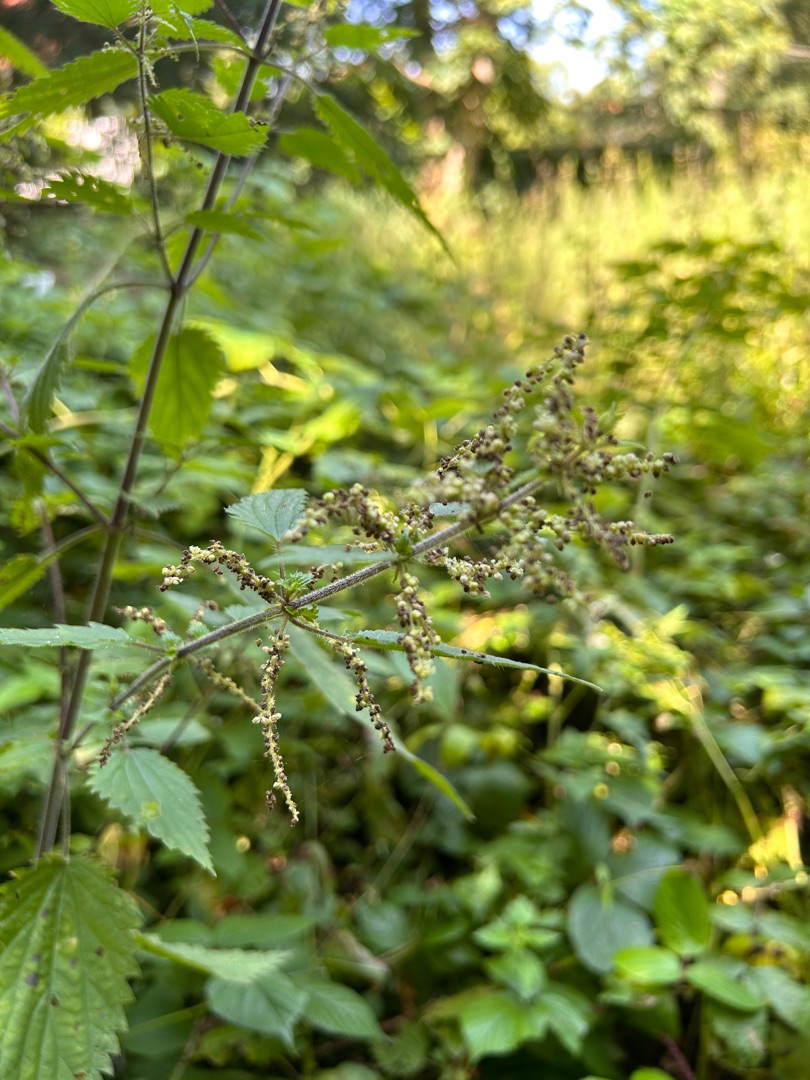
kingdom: Plantae
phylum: Tracheophyta
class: Magnoliopsida
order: Rosales
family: Urticaceae
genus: Urtica
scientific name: Urtica dioica
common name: Stor nælde
